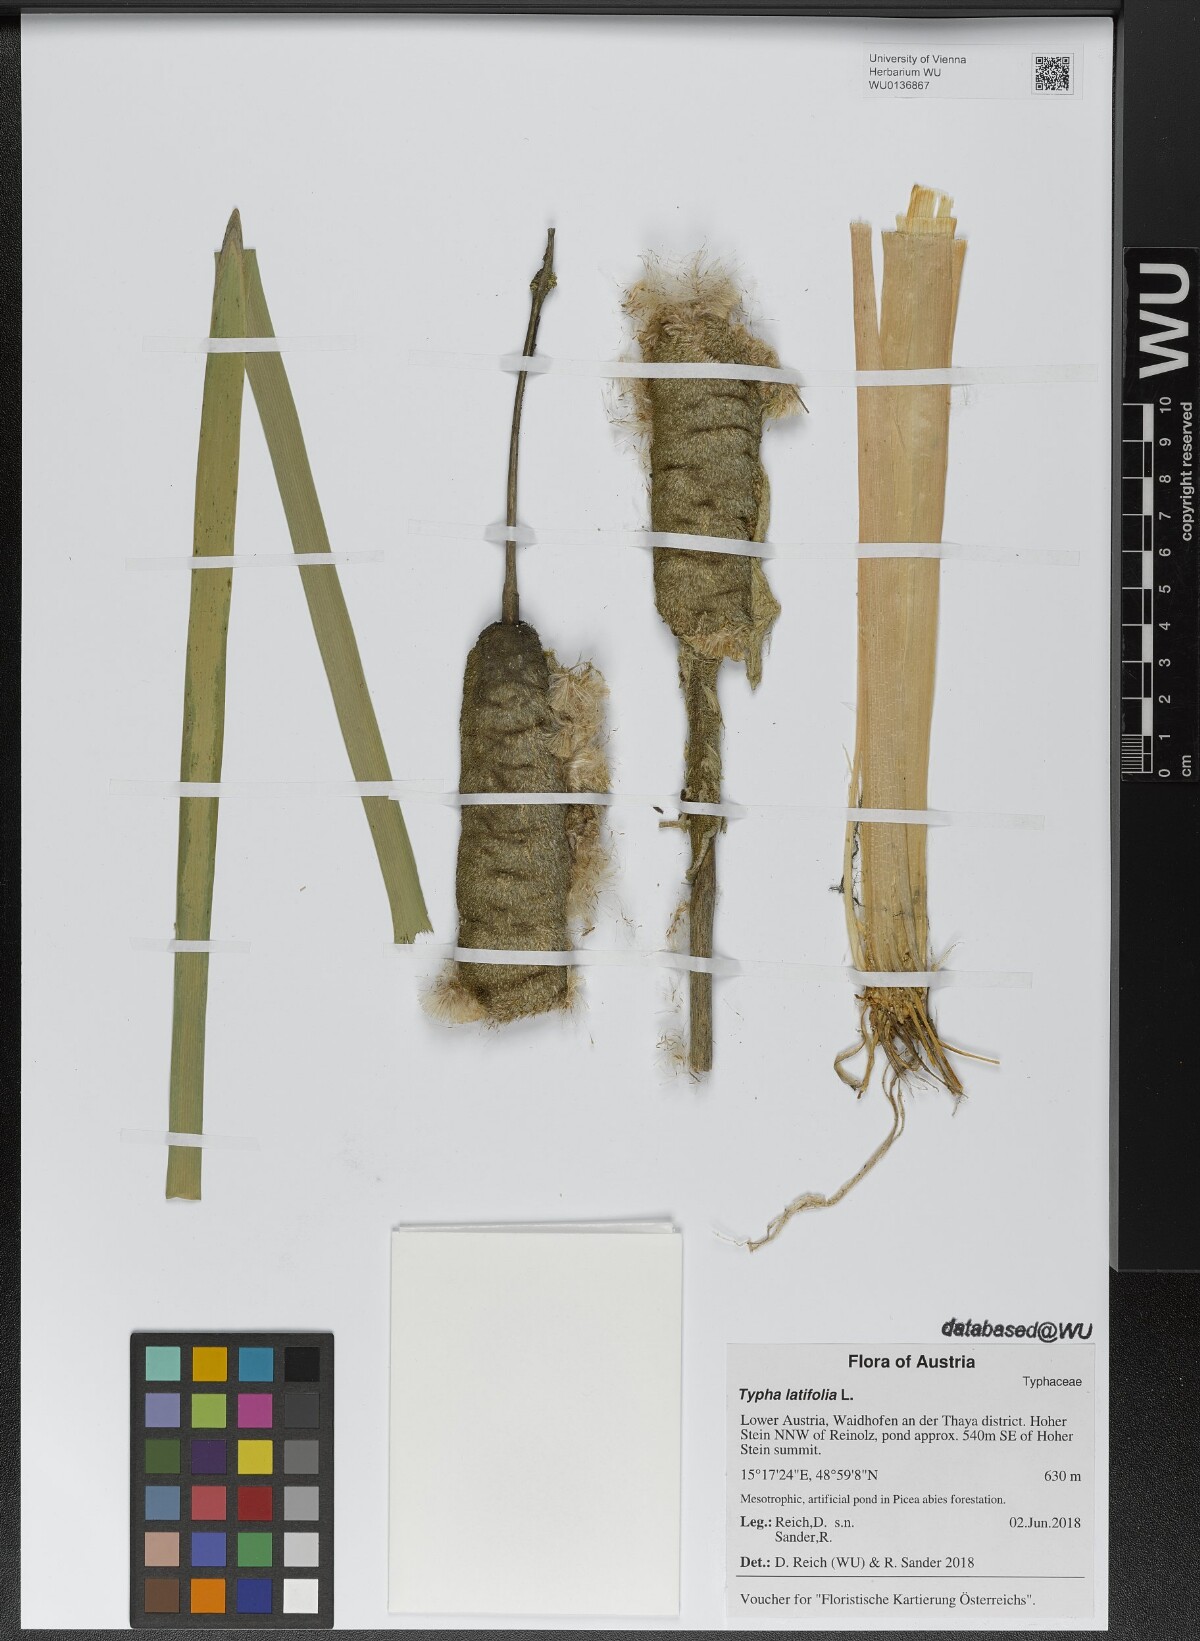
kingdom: Plantae
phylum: Tracheophyta
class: Liliopsida
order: Poales
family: Typhaceae
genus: Typha
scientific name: Typha latifolia
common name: Broadleaf cattail
